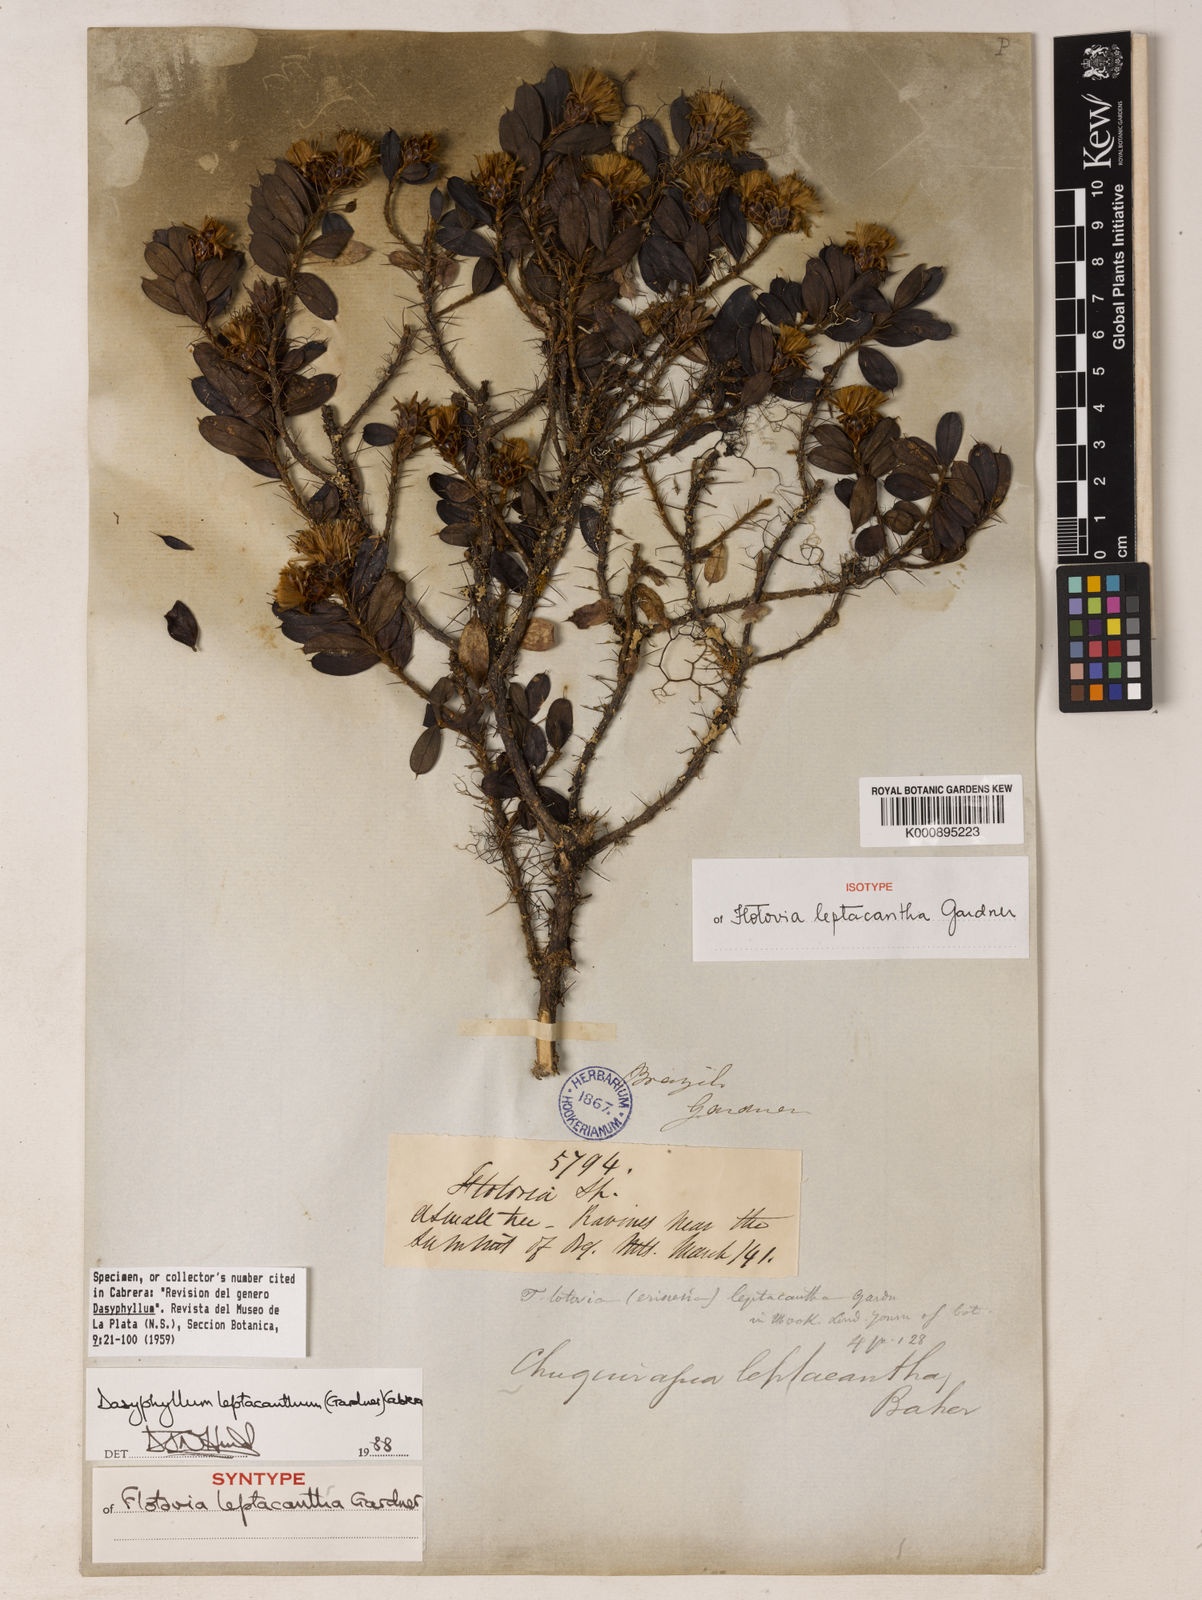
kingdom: Plantae
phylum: Tracheophyta
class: Magnoliopsida
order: Asterales
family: Asteraceae
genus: Dasyphyllum
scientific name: Dasyphyllum leptacanthum
